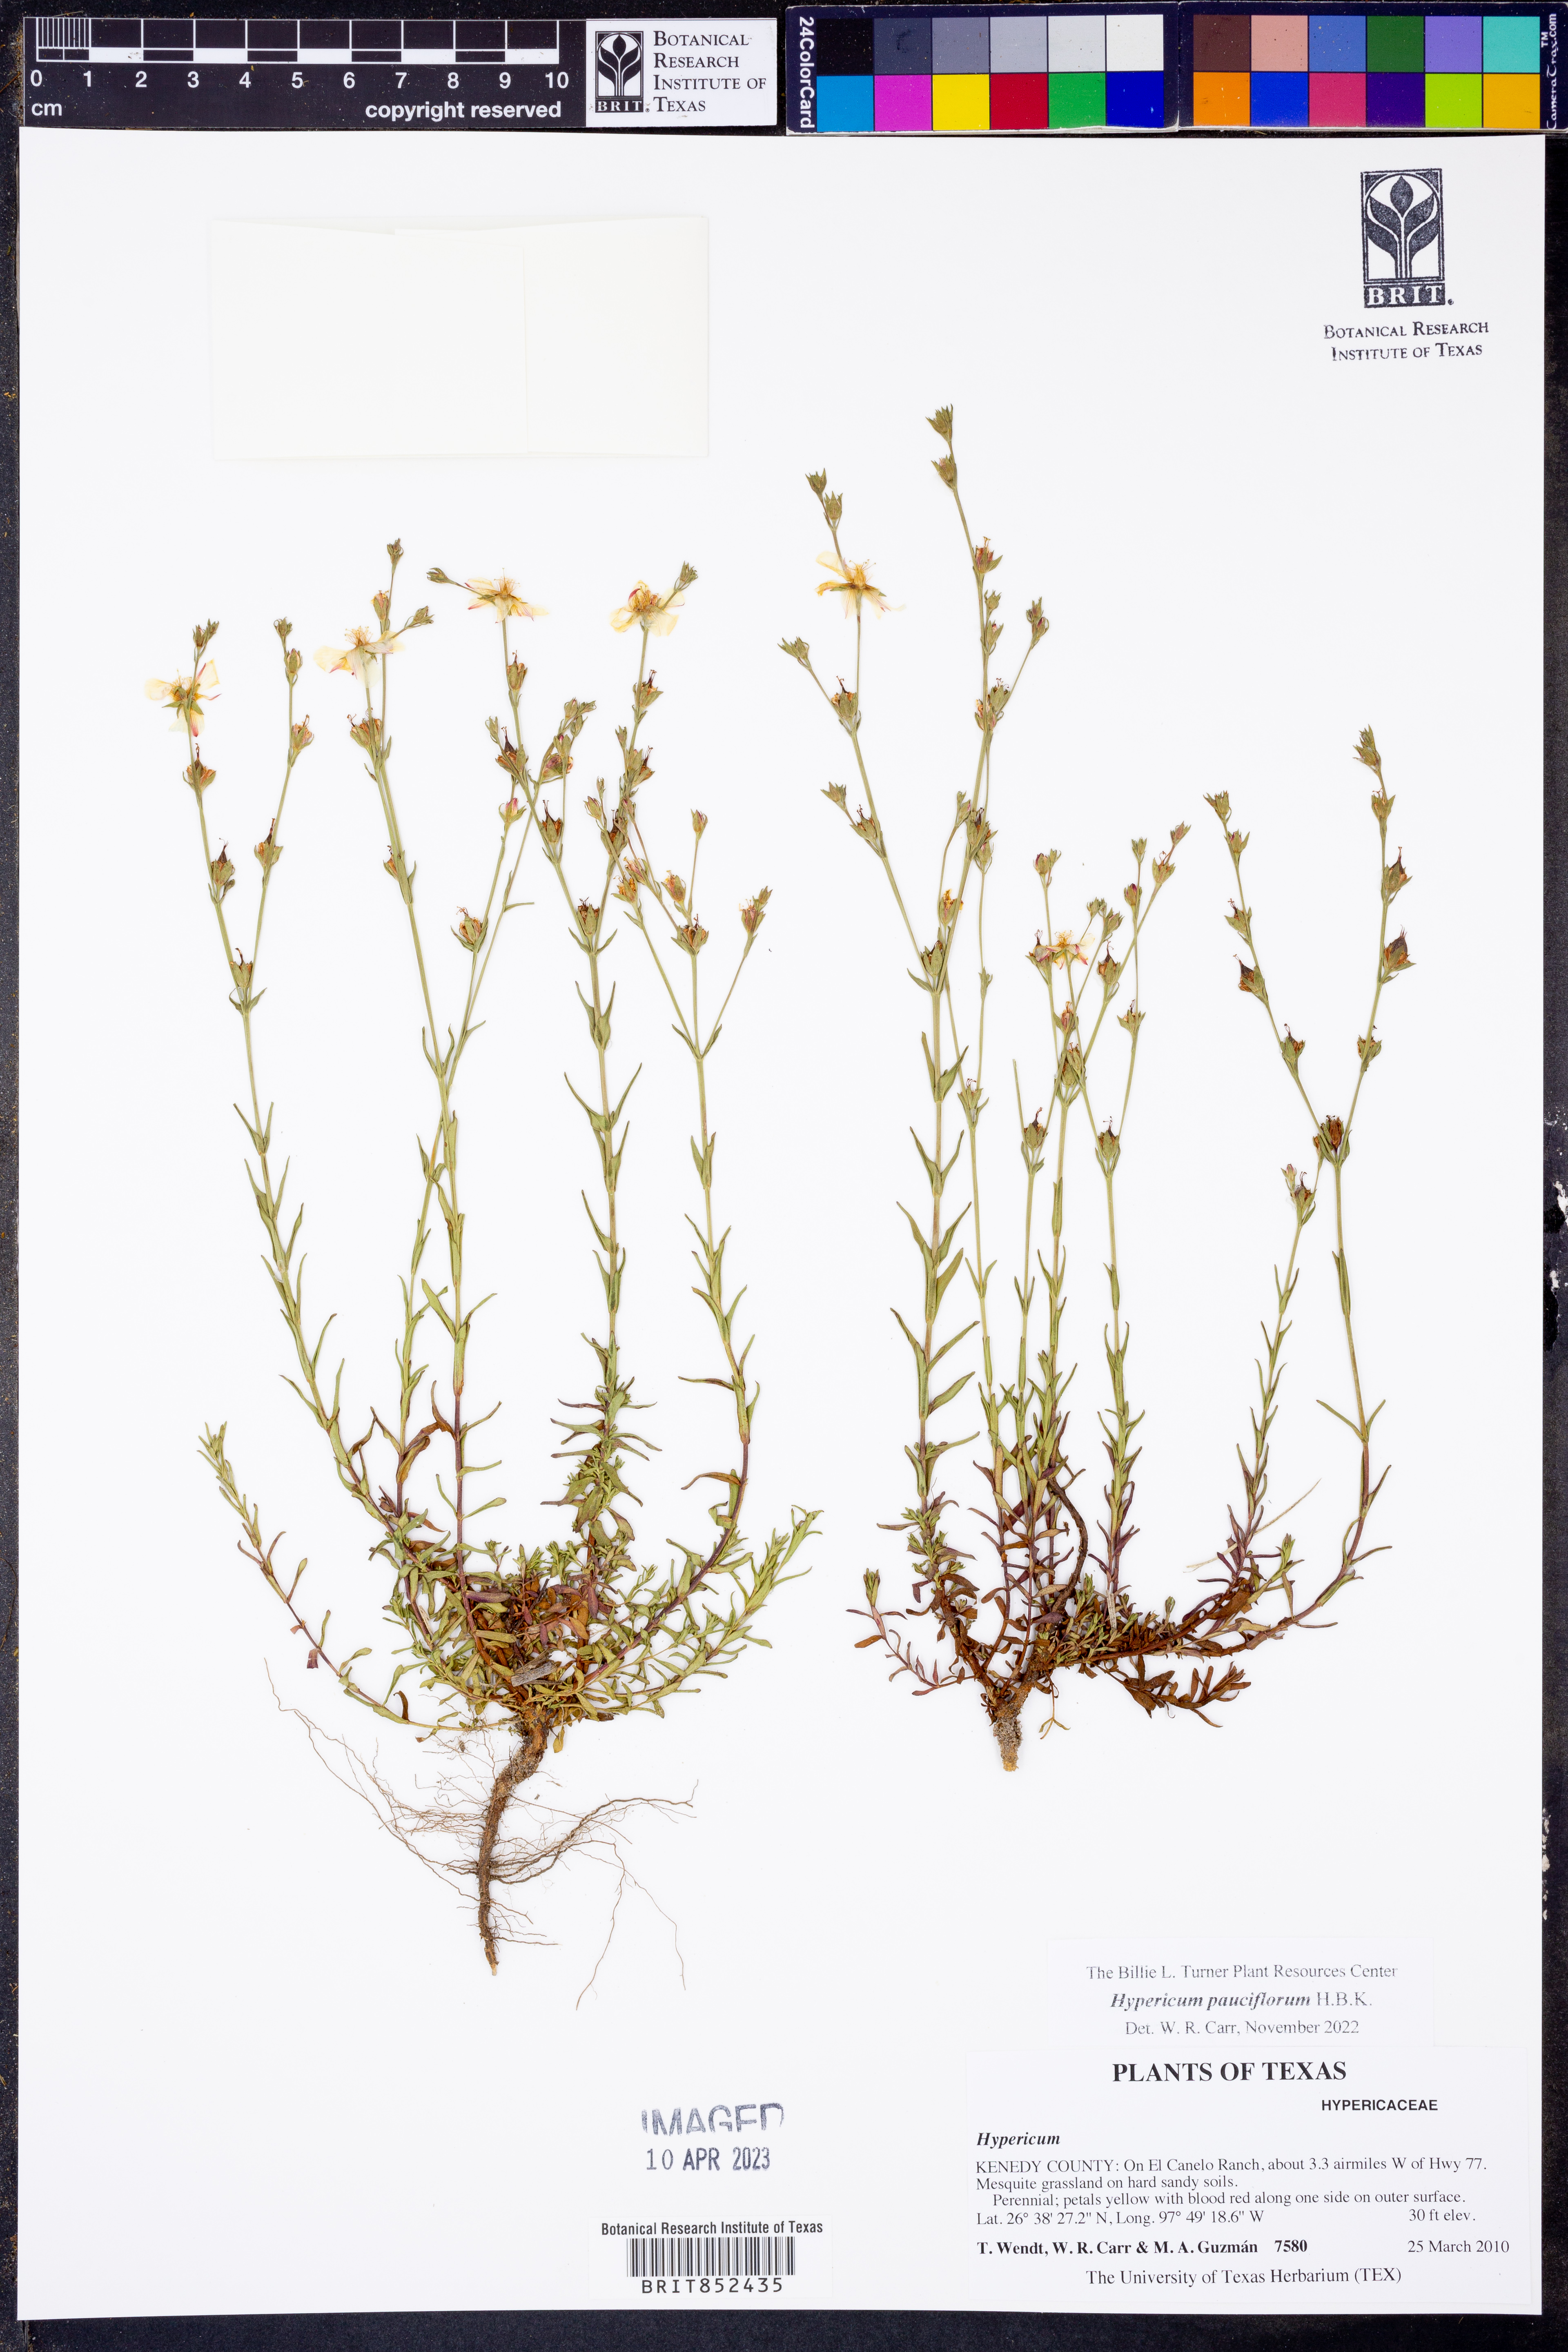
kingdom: Plantae
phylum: Tracheophyta
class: Magnoliopsida
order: Malpighiales
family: Hypericaceae
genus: Hypericum
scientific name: Hypericum pauciflorum
